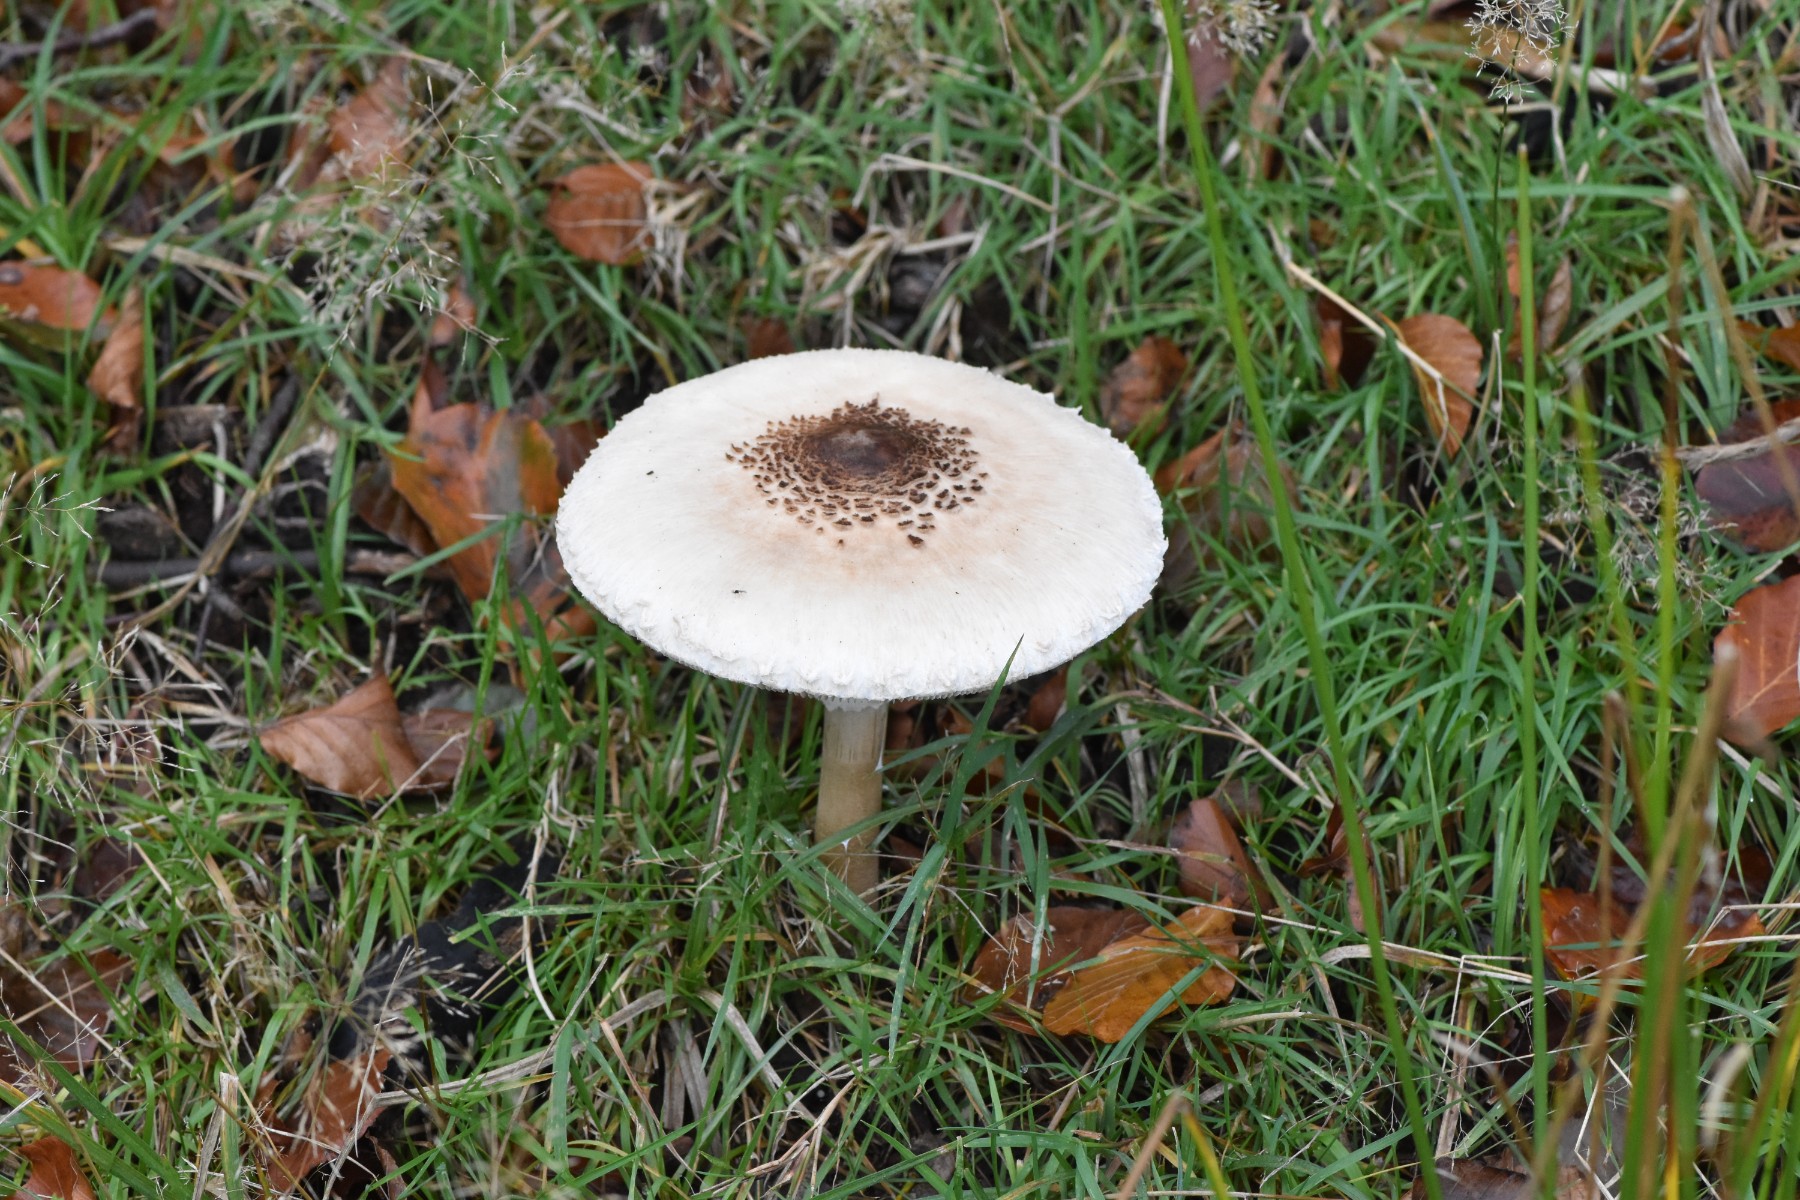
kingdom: Fungi
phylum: Basidiomycota
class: Agaricomycetes
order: Agaricales
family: Agaricaceae
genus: Macrolepiota
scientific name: Macrolepiota mastoidea
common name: puklet kæmpeparasolhat
